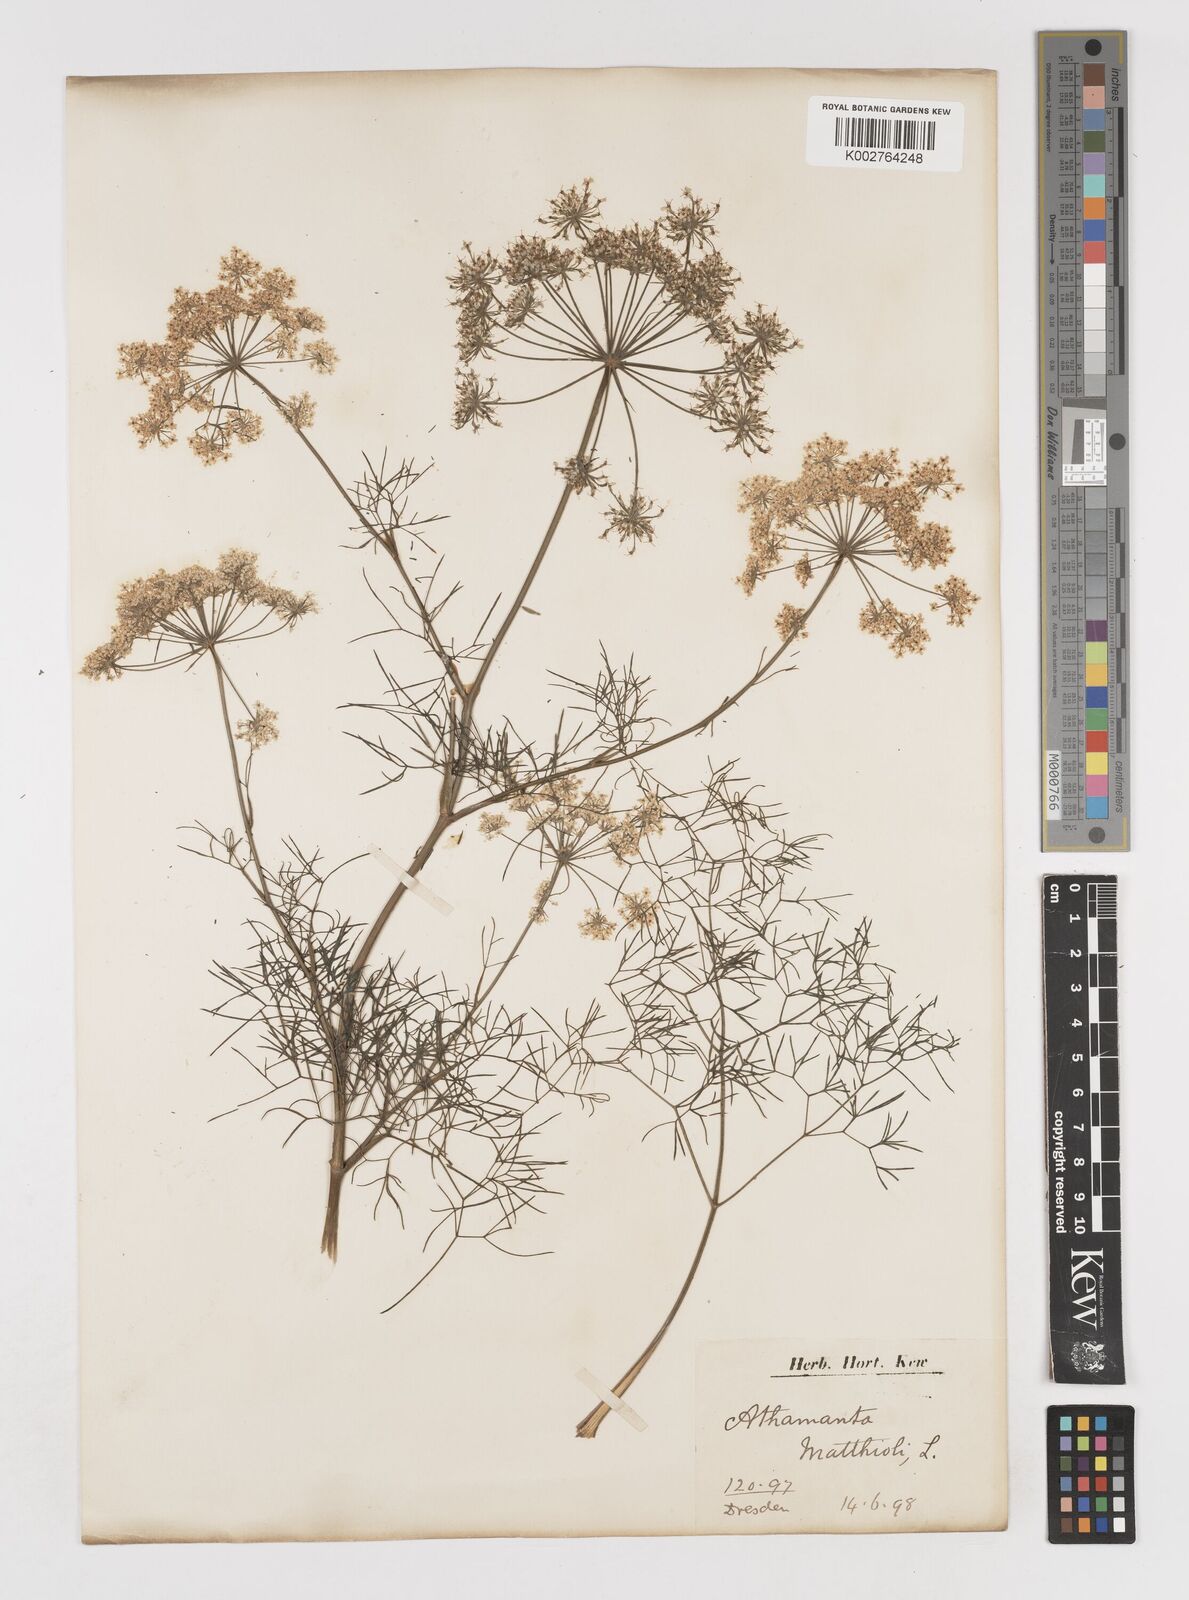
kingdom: Plantae
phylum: Tracheophyta
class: Magnoliopsida
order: Apiales
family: Apiaceae
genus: Athamanta
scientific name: Athamanta turbith
